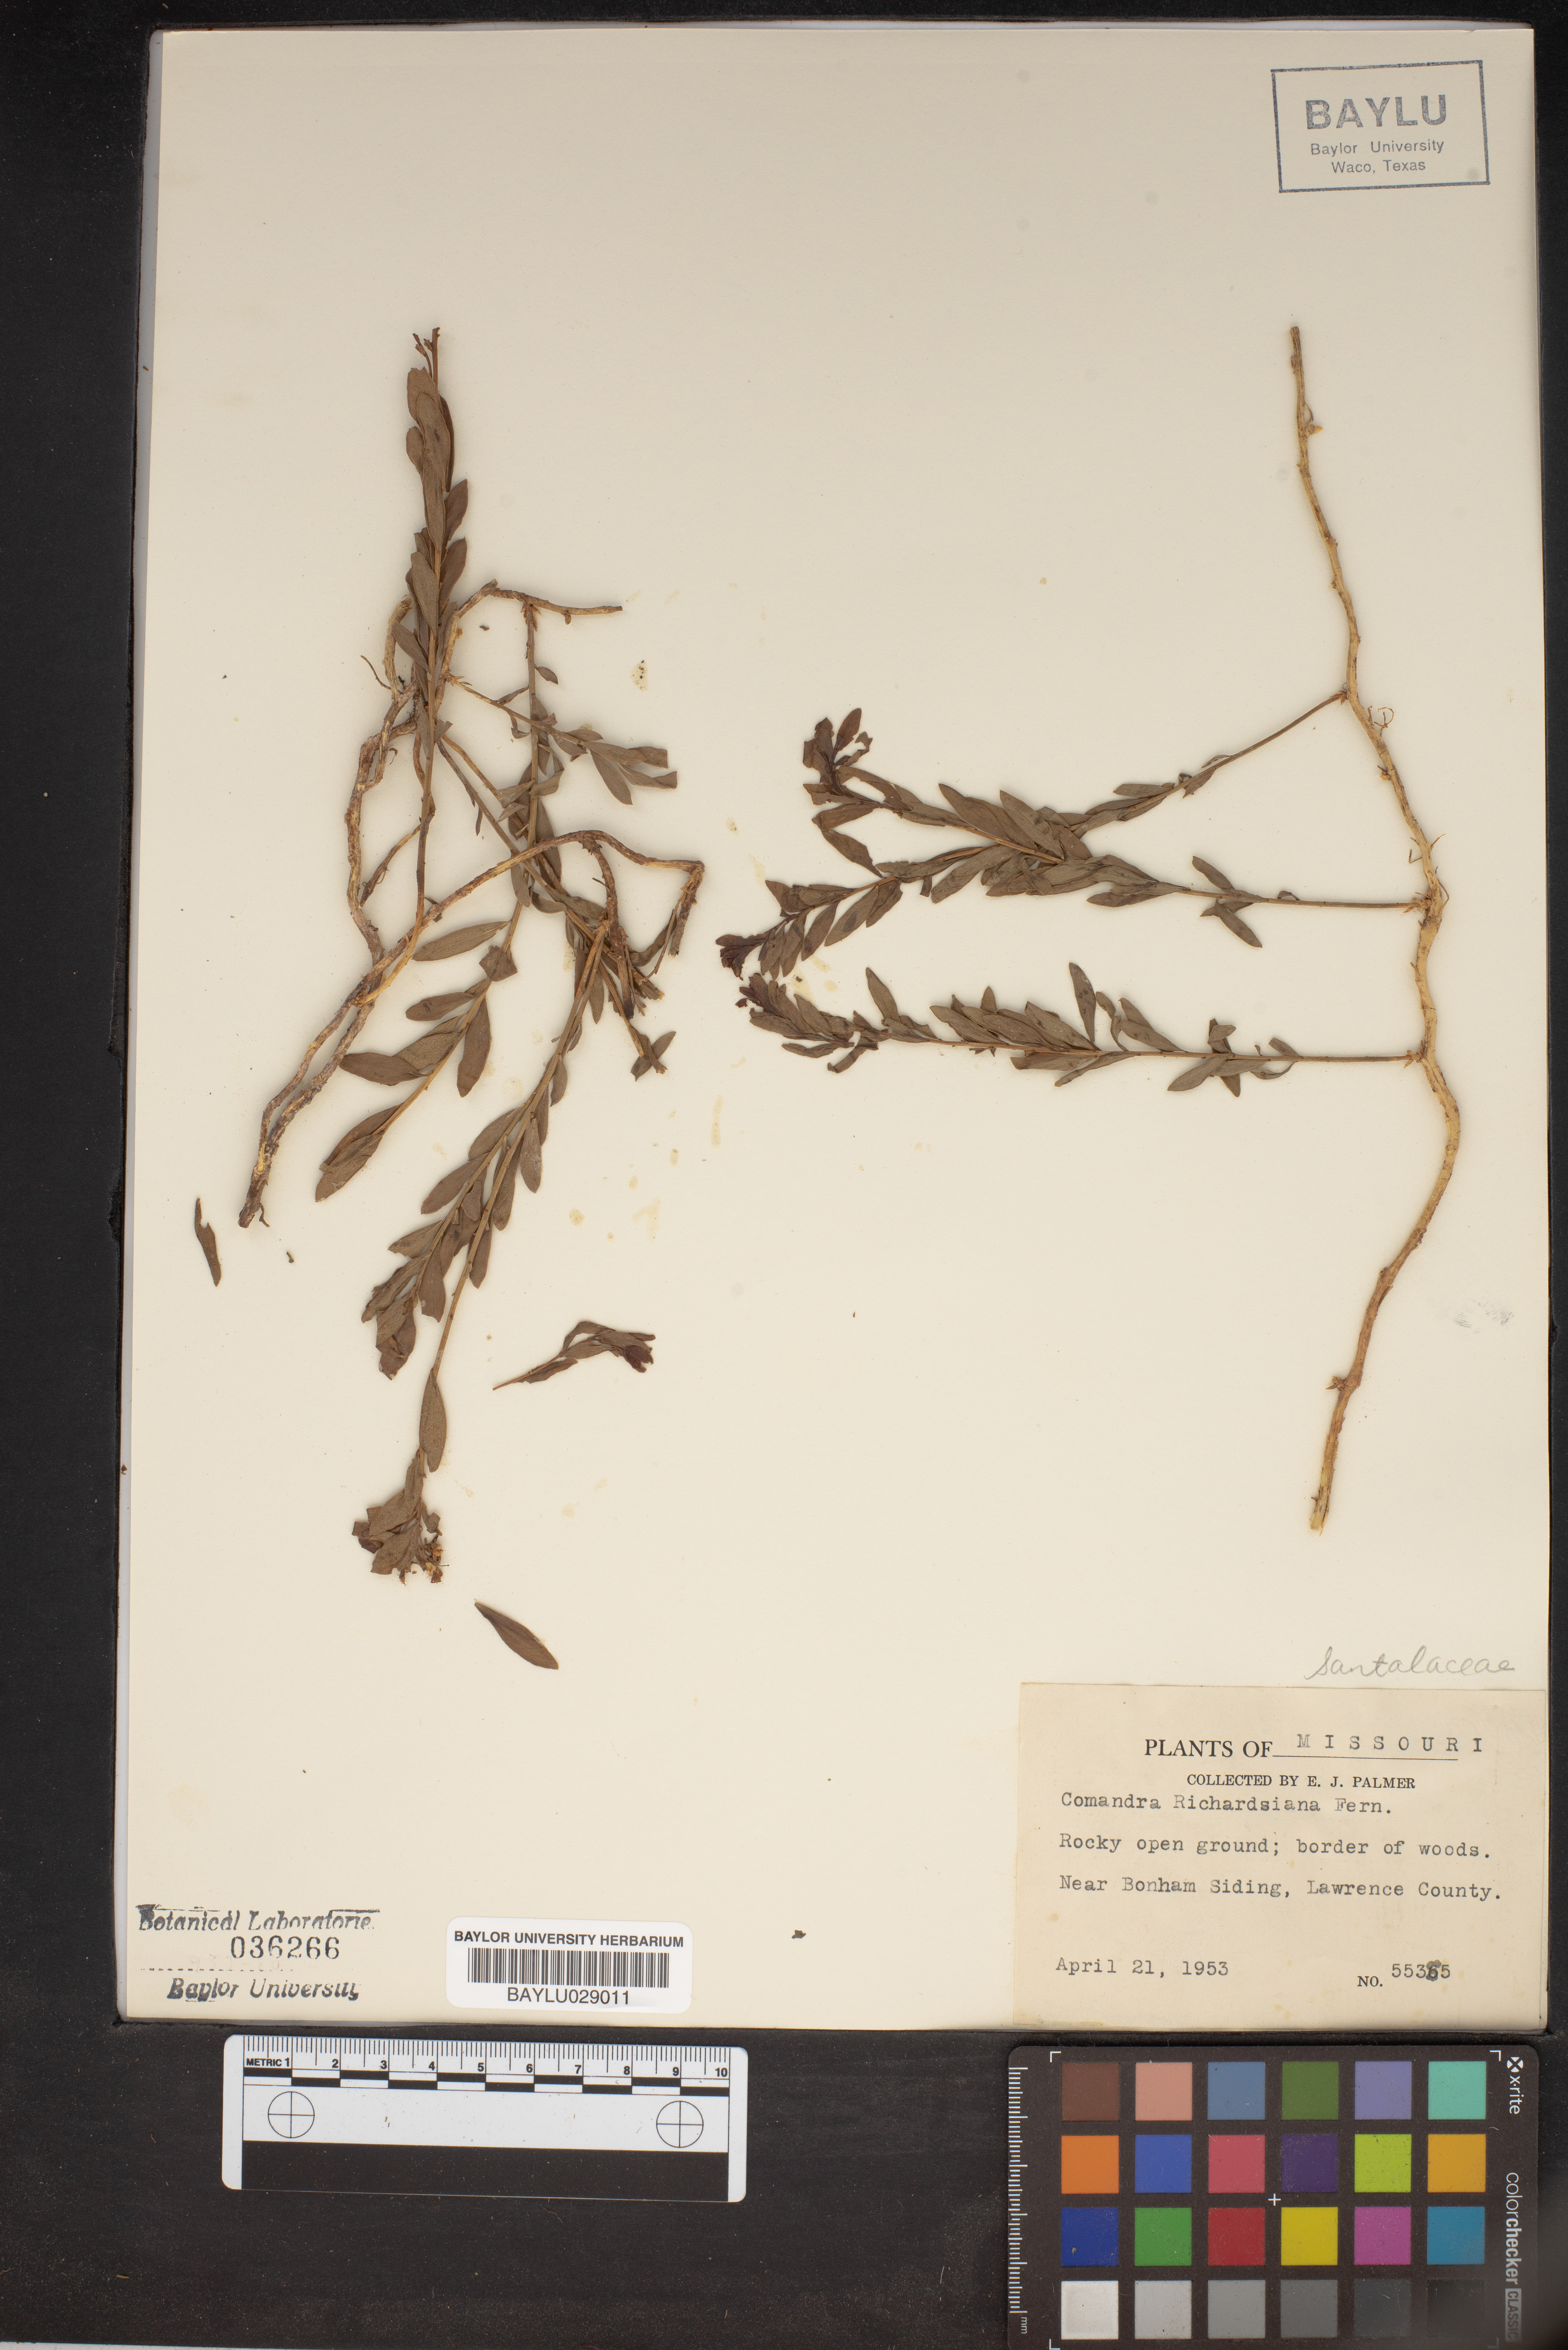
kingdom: Plantae
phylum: Tracheophyta
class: Magnoliopsida
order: Santalales
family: Comandraceae
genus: Comandra
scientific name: Comandra umbellata
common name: Bastard toadflax
